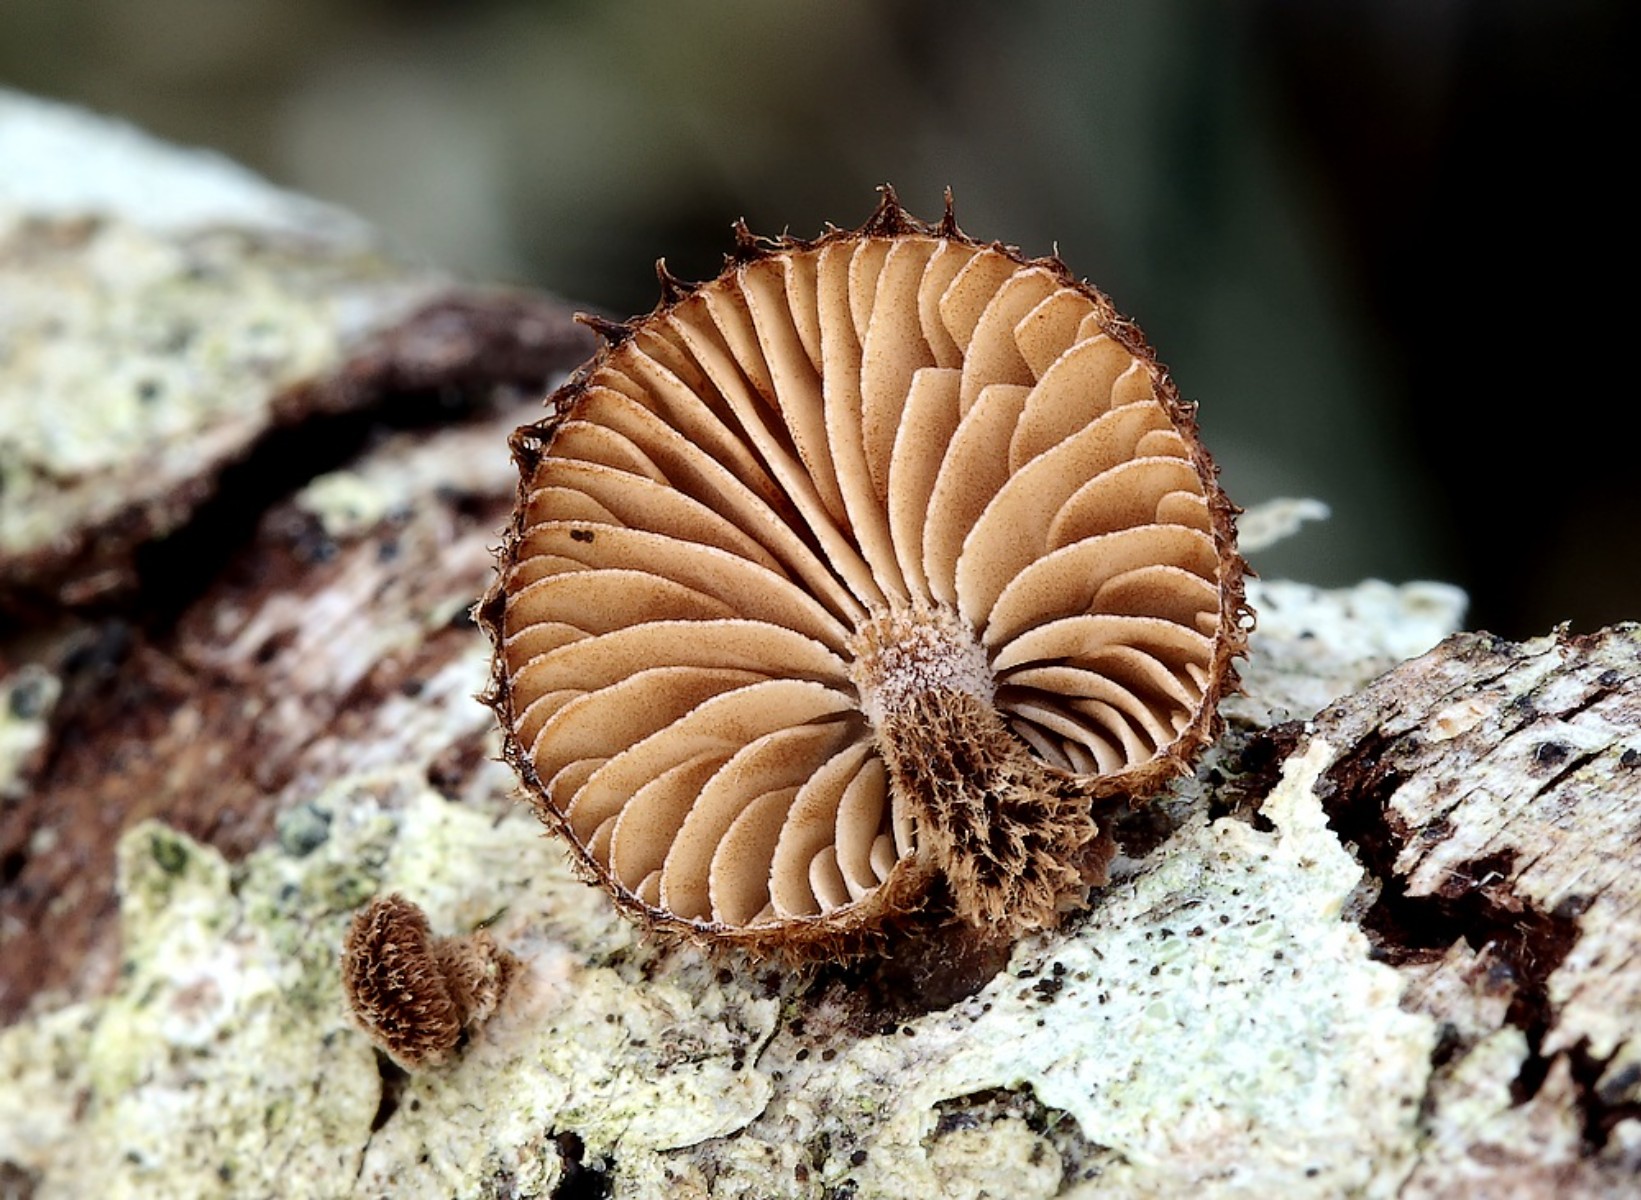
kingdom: Fungi
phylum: Basidiomycota
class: Agaricomycetes
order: Agaricales
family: Tubariaceae
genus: Phaeomarasmius
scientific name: Phaeomarasmius erinaceus
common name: spidsskælhat
